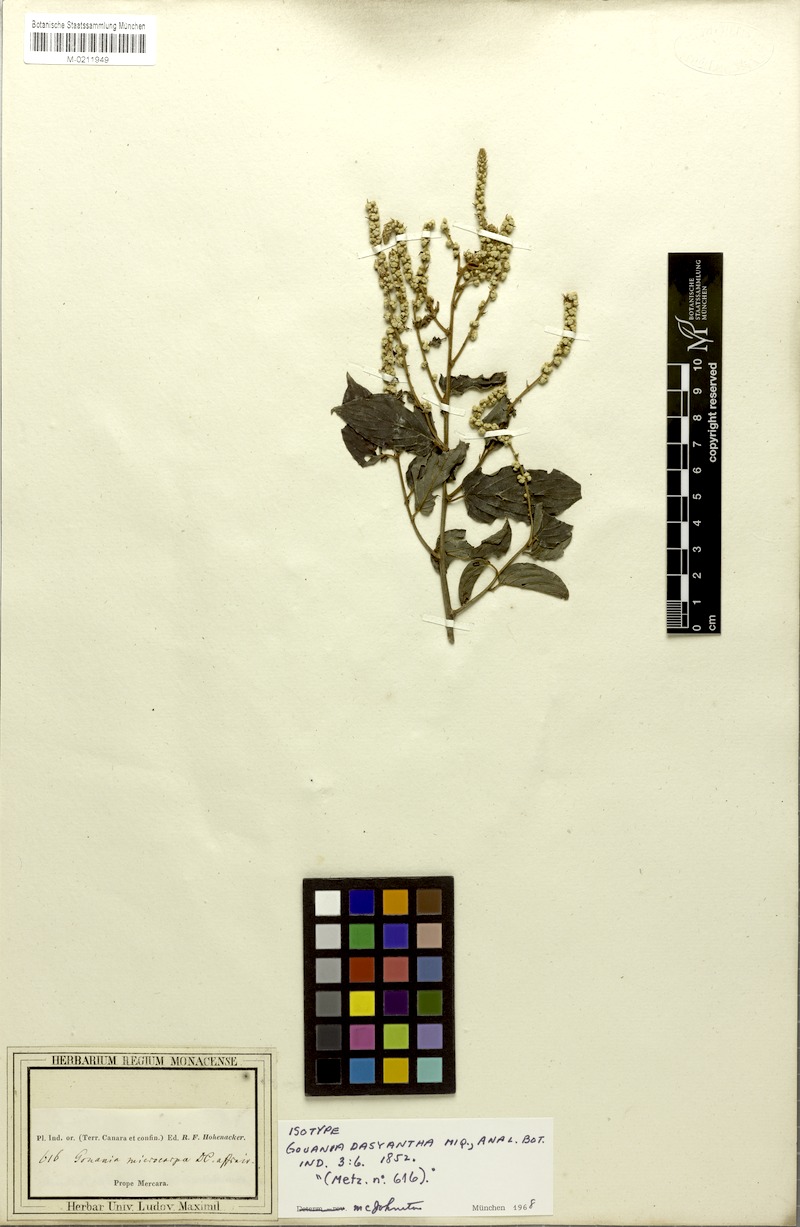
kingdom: Plantae
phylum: Tracheophyta
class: Magnoliopsida
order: Rosales
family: Rhamnaceae
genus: Gouania
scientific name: Gouania dasyantha
